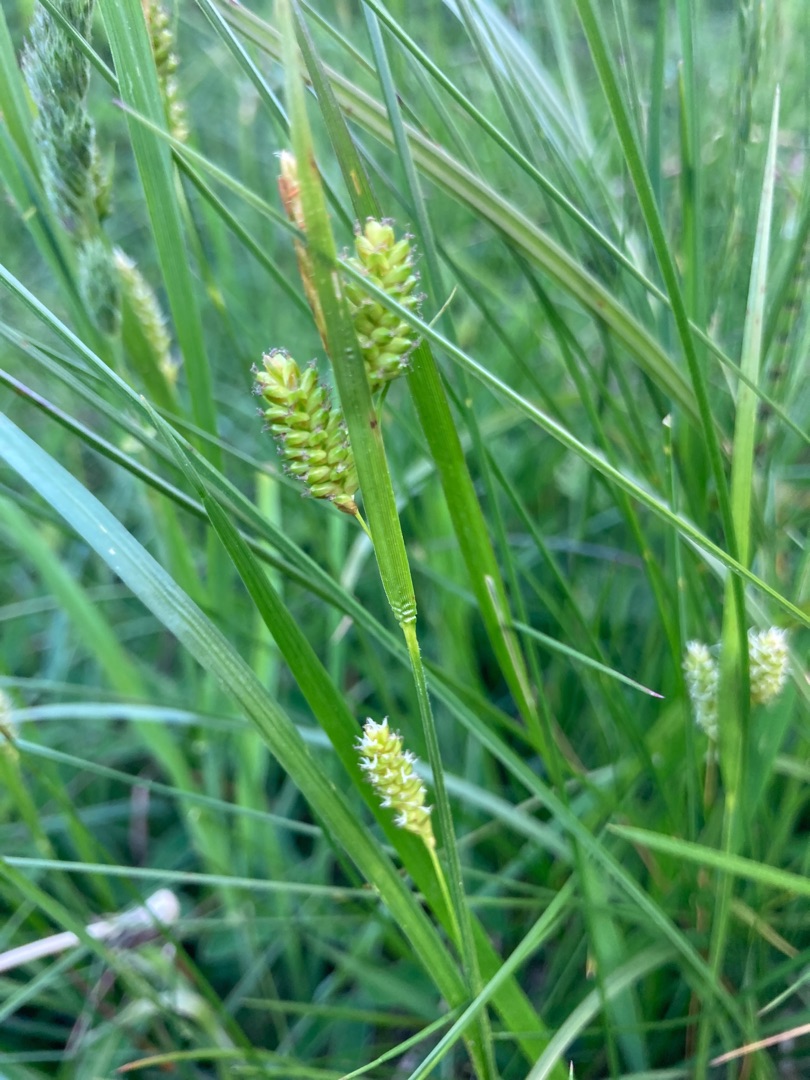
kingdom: Plantae
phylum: Tracheophyta
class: Liliopsida
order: Poales
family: Cyperaceae
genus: Carex
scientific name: Carex pallescens
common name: Bleg star
